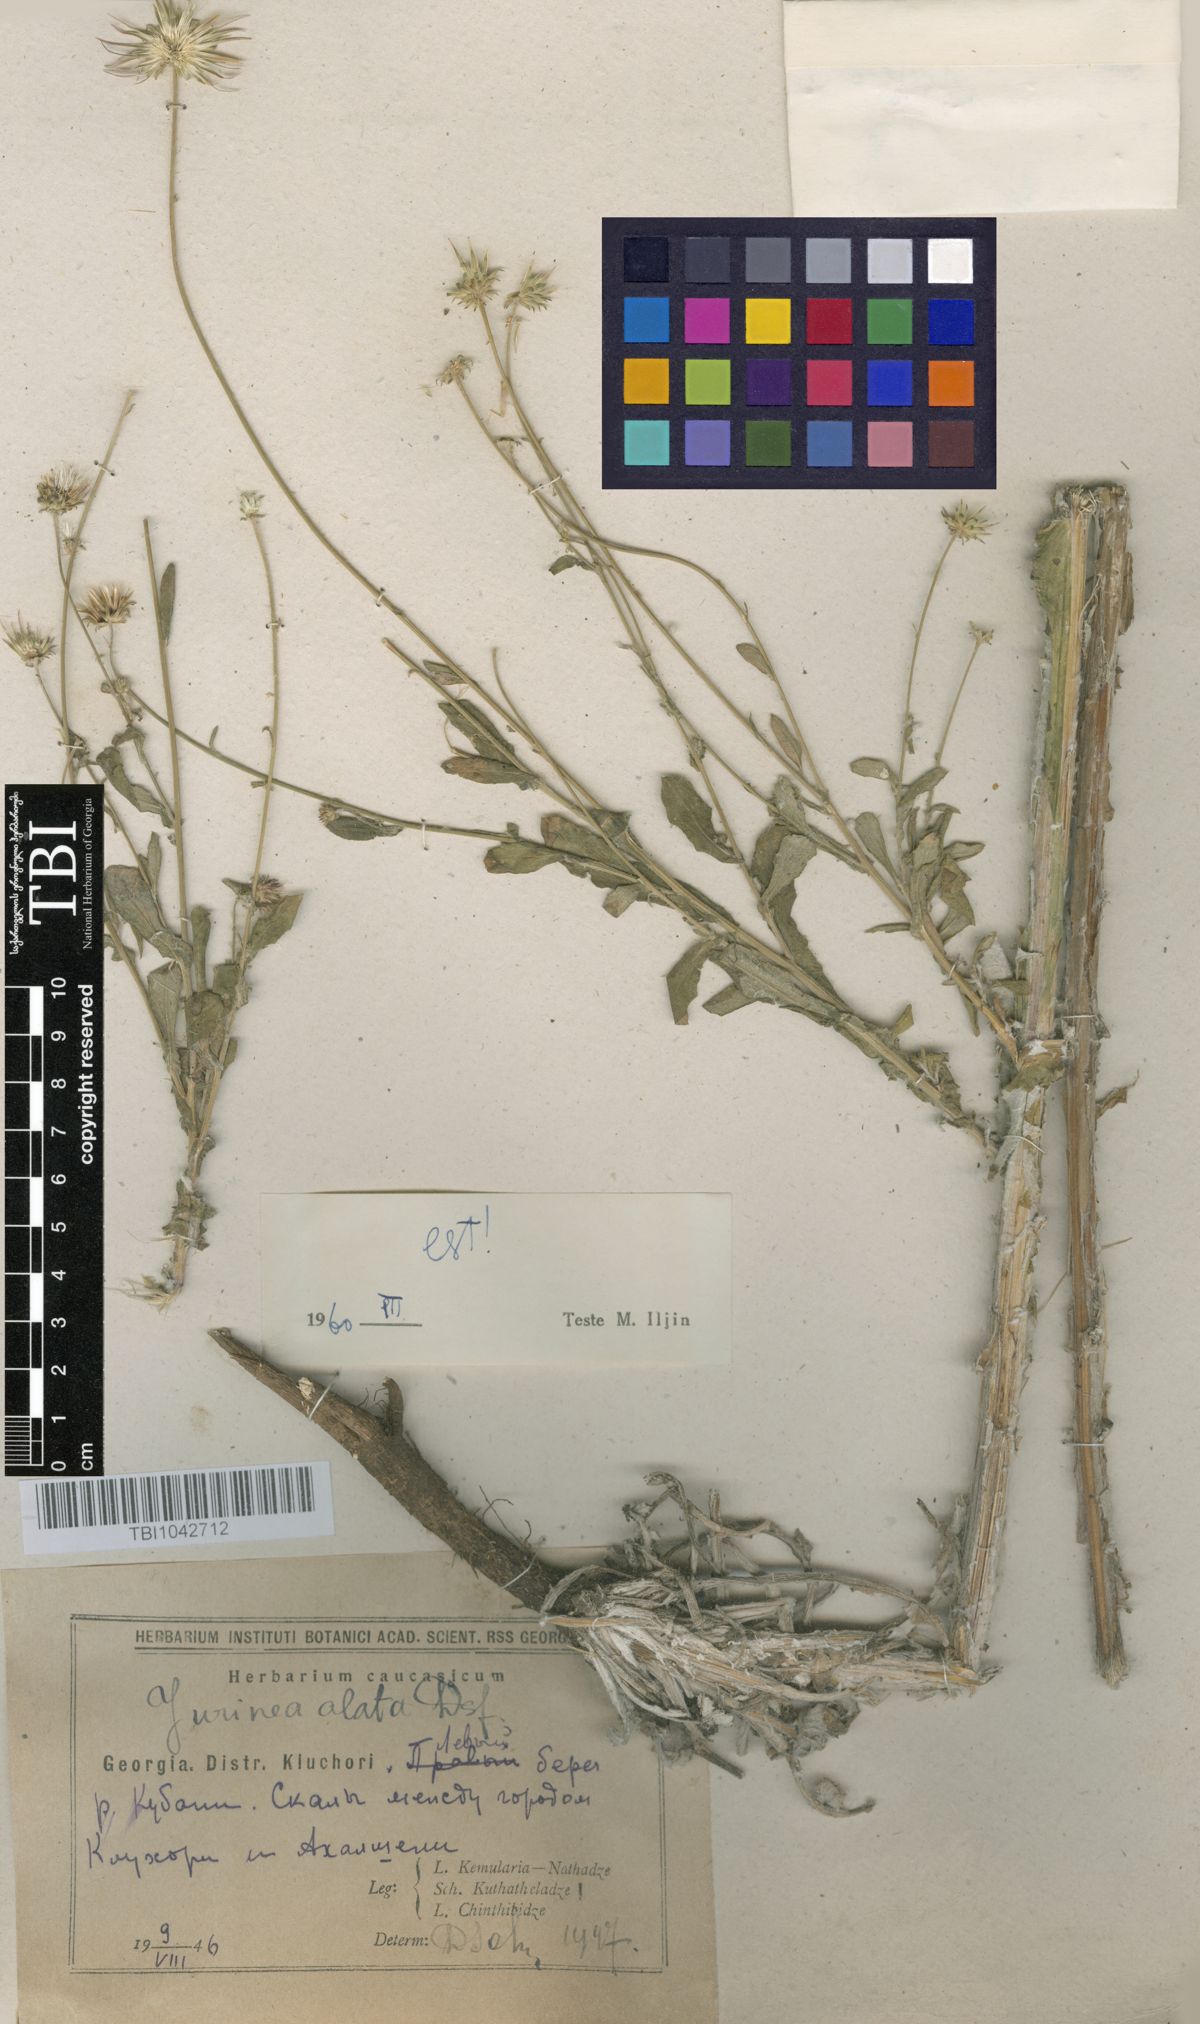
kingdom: Plantae
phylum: Tracheophyta
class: Magnoliopsida
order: Asterales
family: Asteraceae
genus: Jurinea
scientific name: Jurinea alata
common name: Winged jurinea
